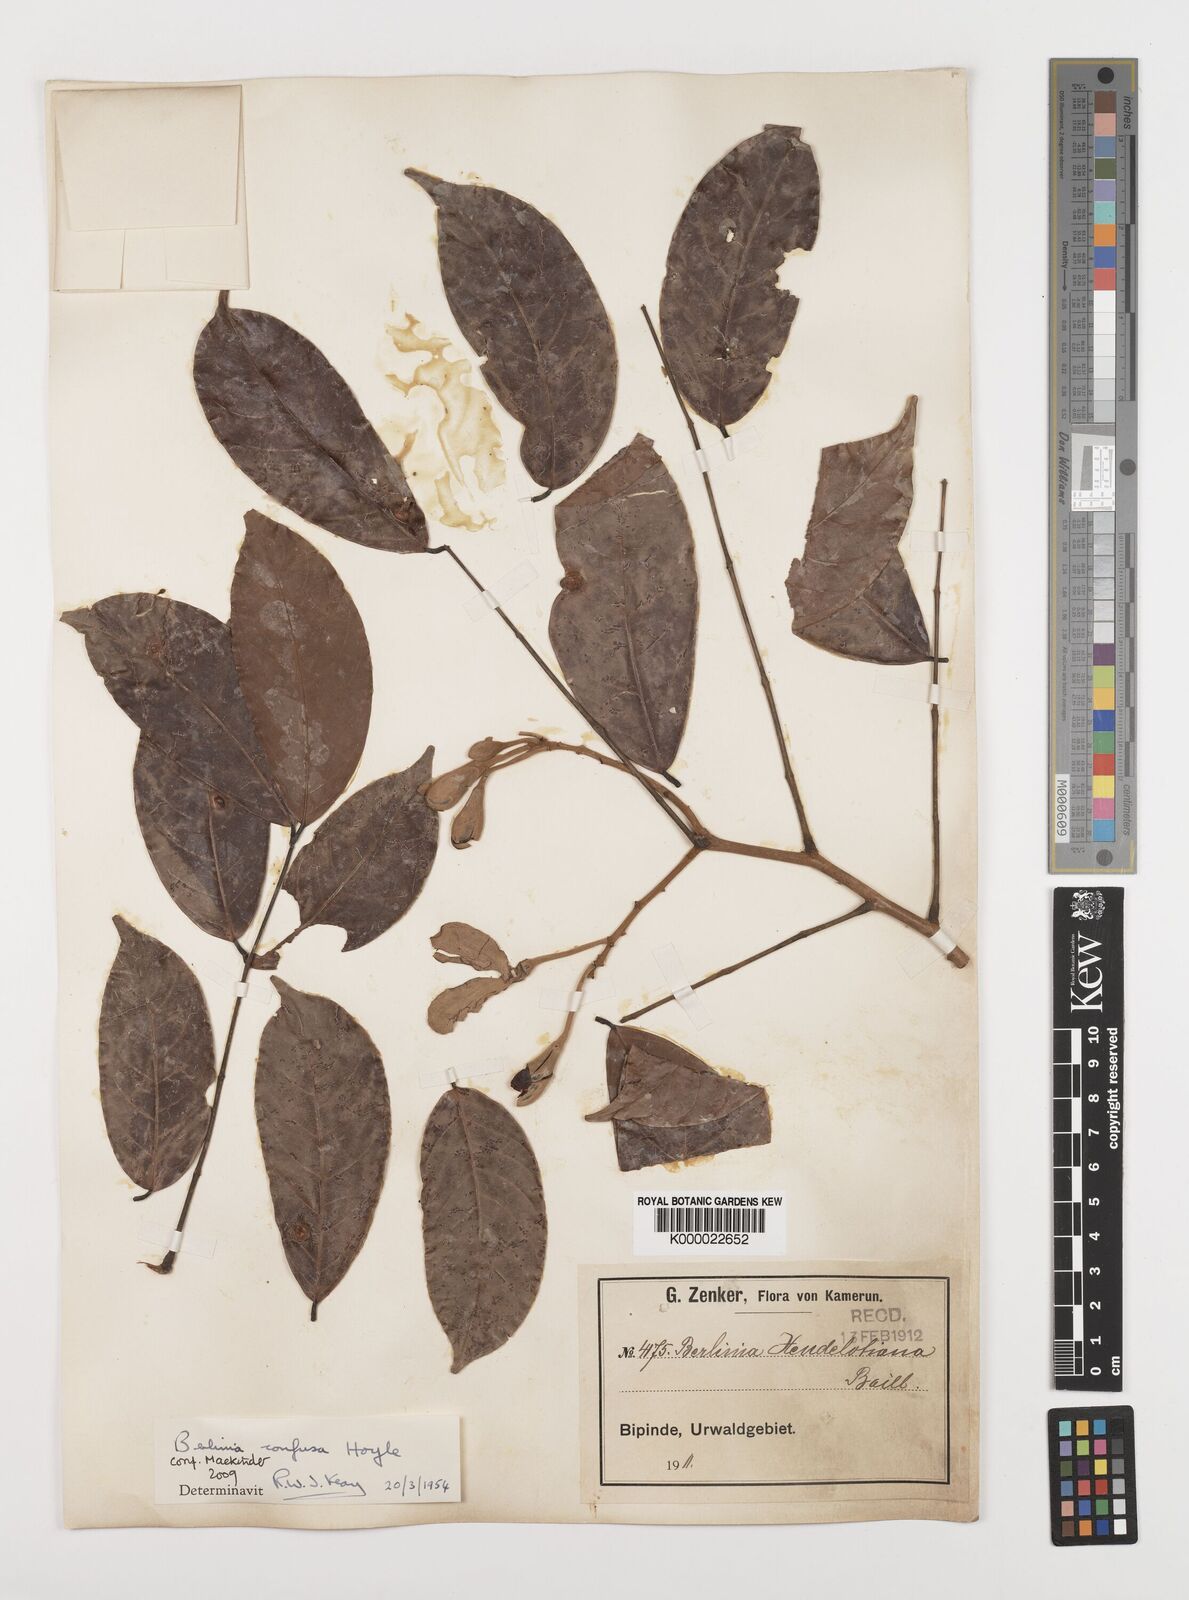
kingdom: Plantae
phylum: Tracheophyta
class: Magnoliopsida
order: Fabales
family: Fabaceae
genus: Berlinia
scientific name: Berlinia confusa
